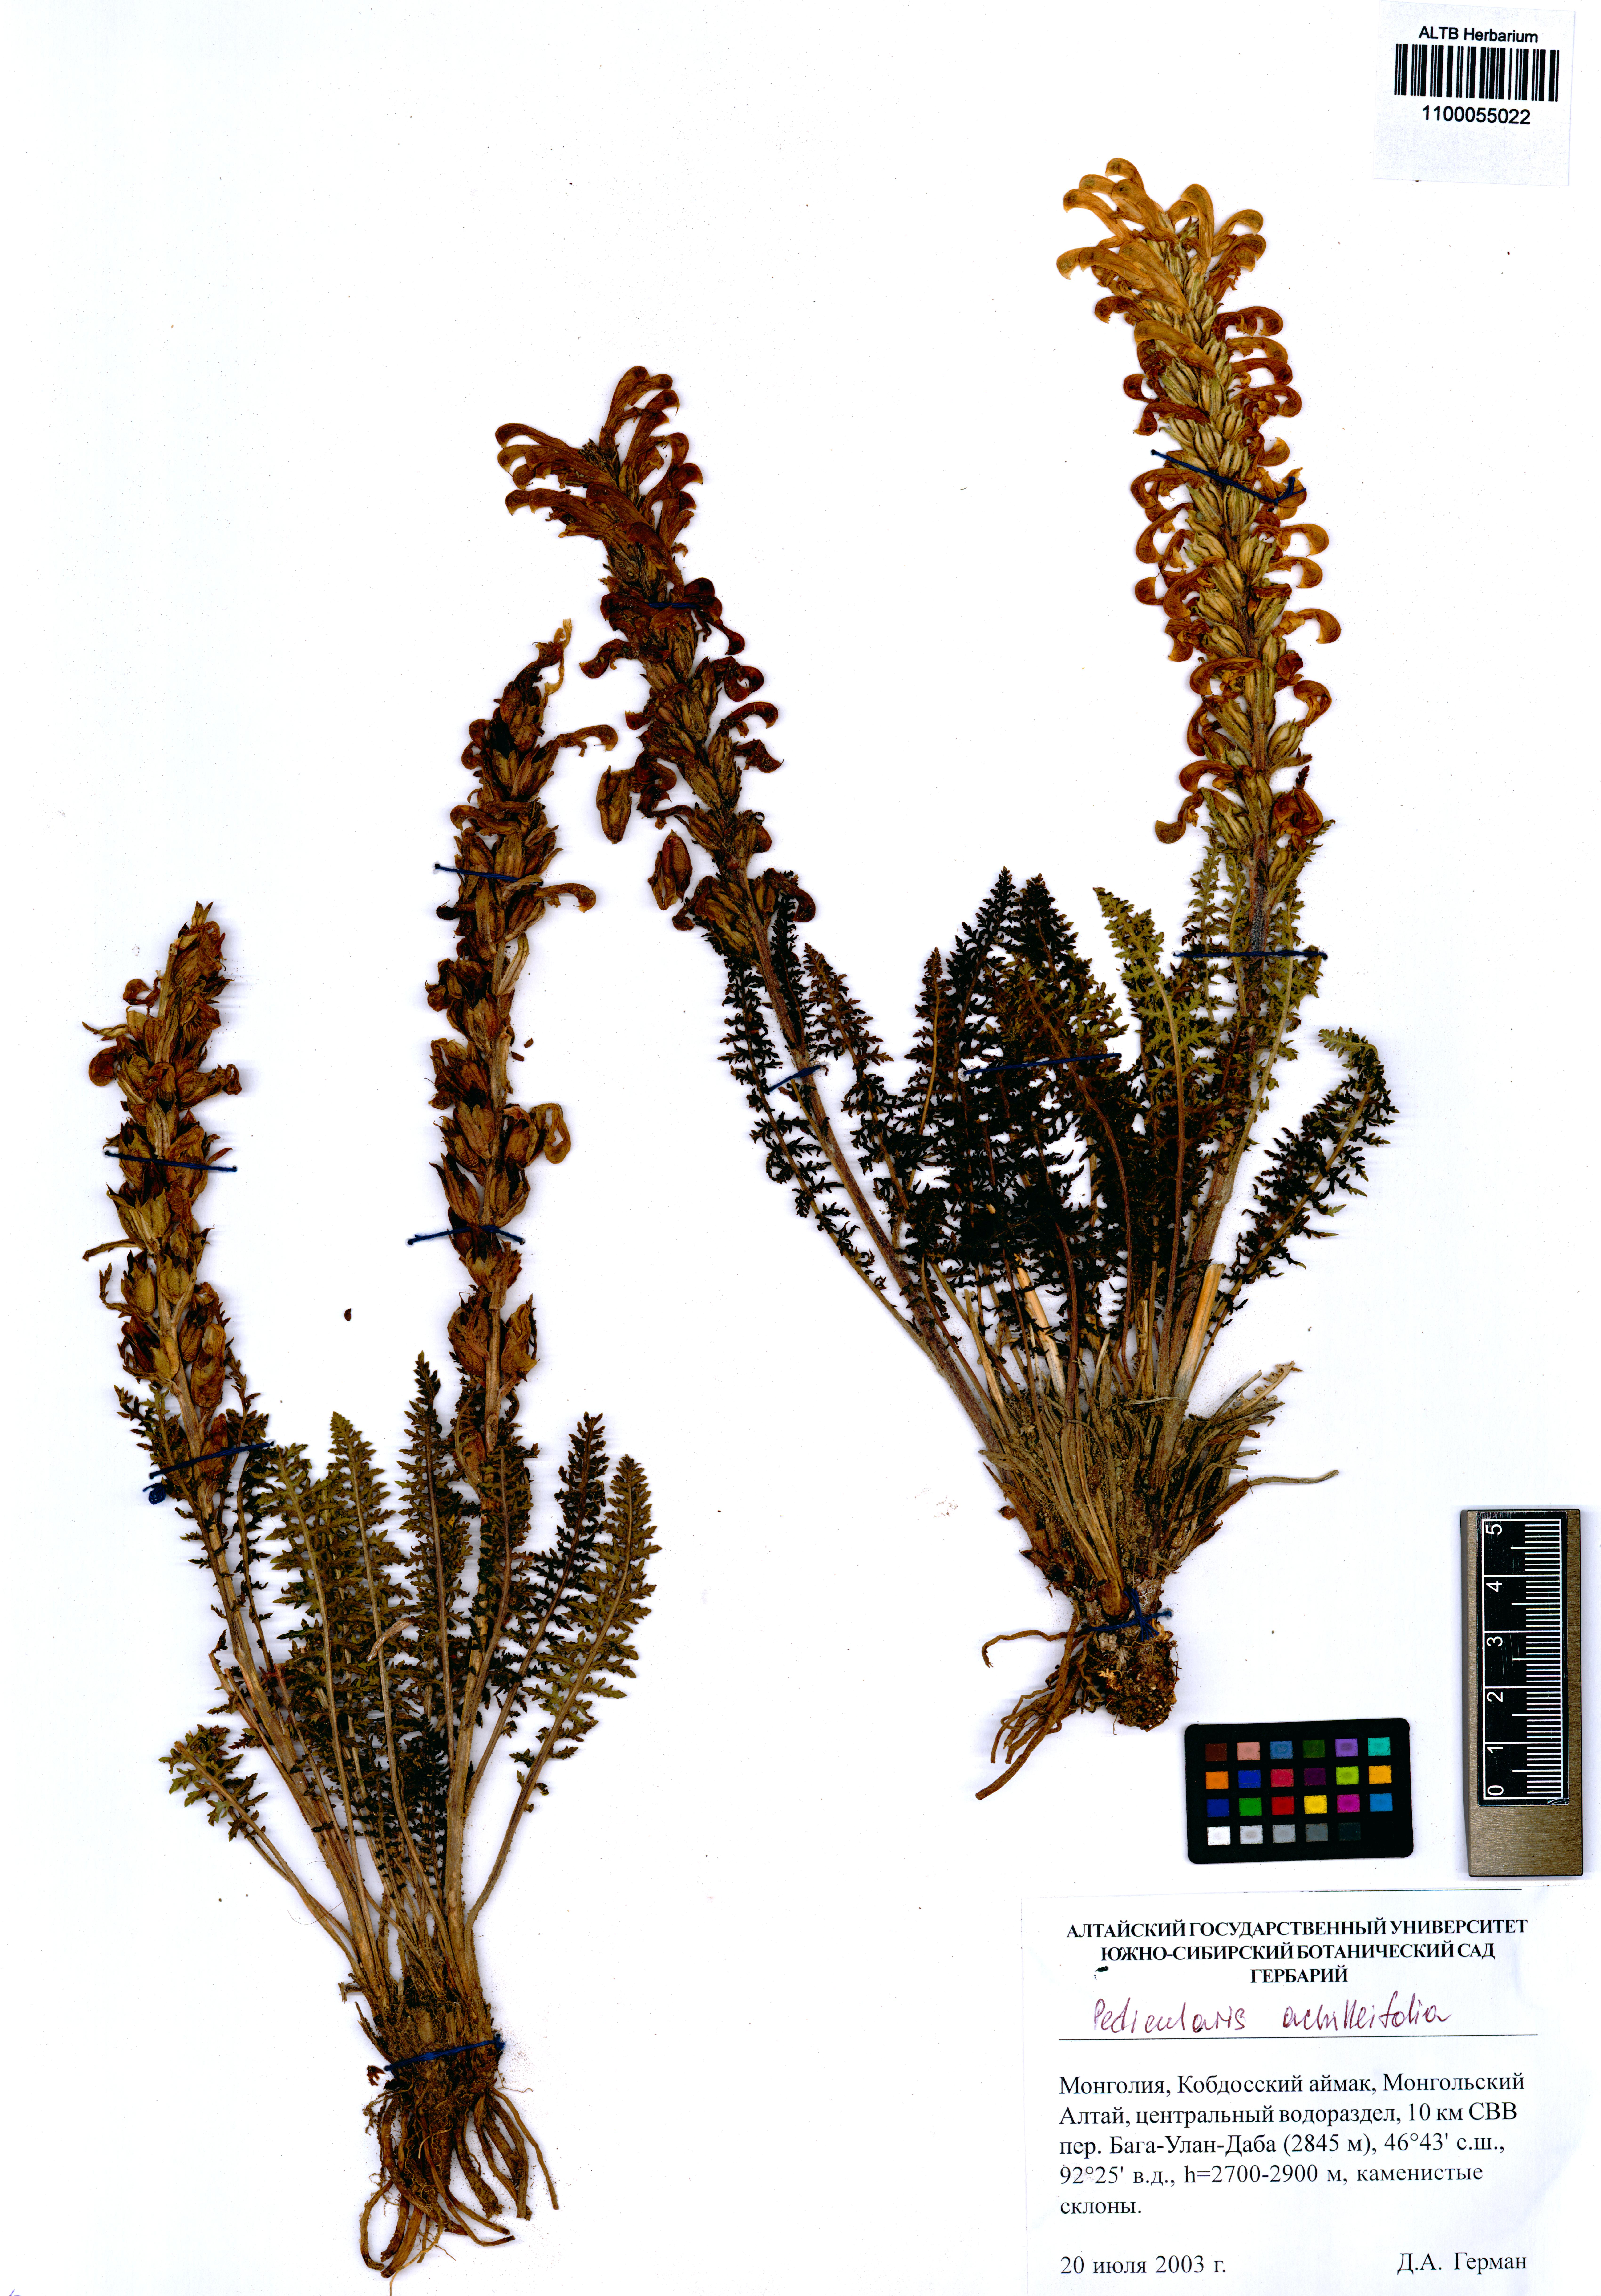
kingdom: Plantae
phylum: Tracheophyta
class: Magnoliopsida
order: Lamiales
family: Orobanchaceae
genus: Pedicularis
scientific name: Pedicularis achilleifolia
